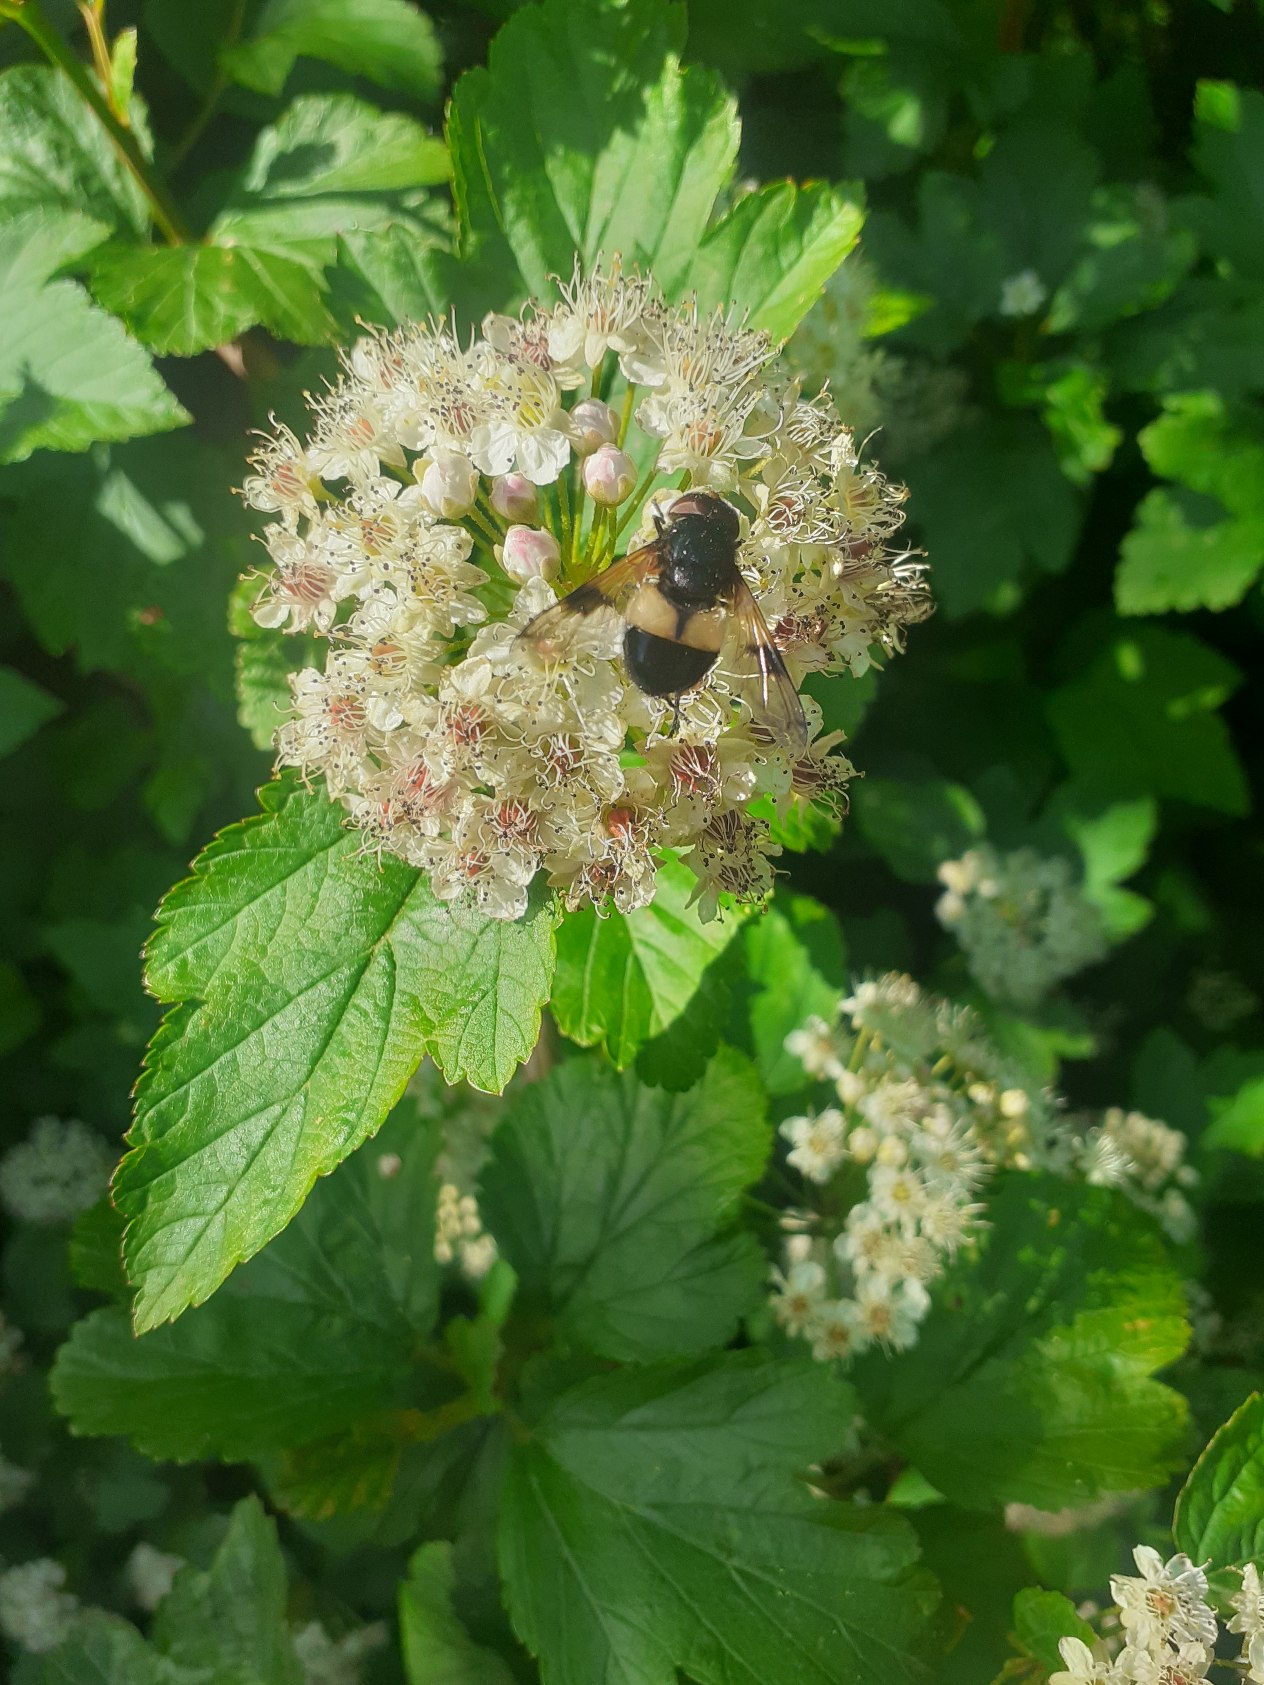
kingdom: Animalia
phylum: Arthropoda
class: Insecta
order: Diptera
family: Syrphidae
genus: Volucella
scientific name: Volucella pellucens
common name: Hvidbåndet humlesvirreflue
